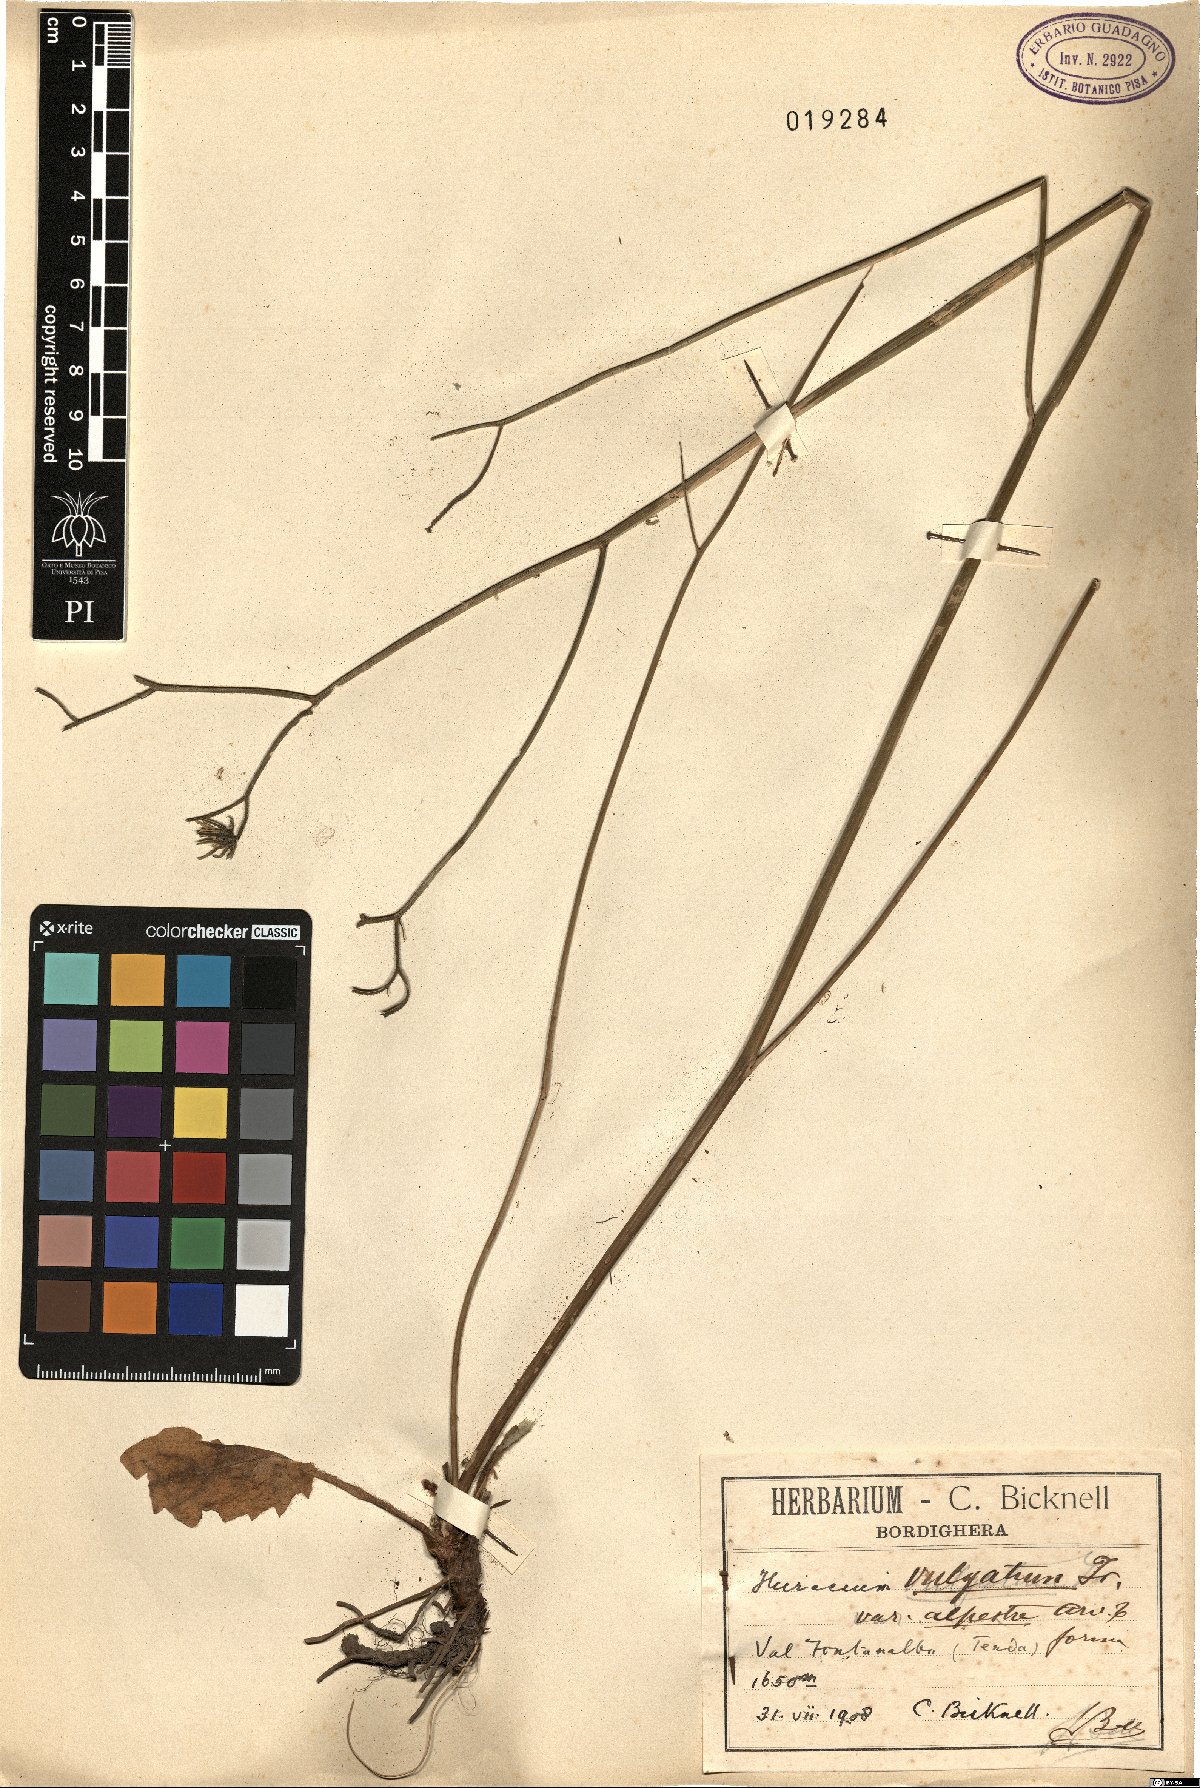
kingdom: Plantae
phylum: Tracheophyta
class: Magnoliopsida
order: Asterales
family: Asteraceae
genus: Hieracium
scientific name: Hieracium lachenalii
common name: Common hawkweed
